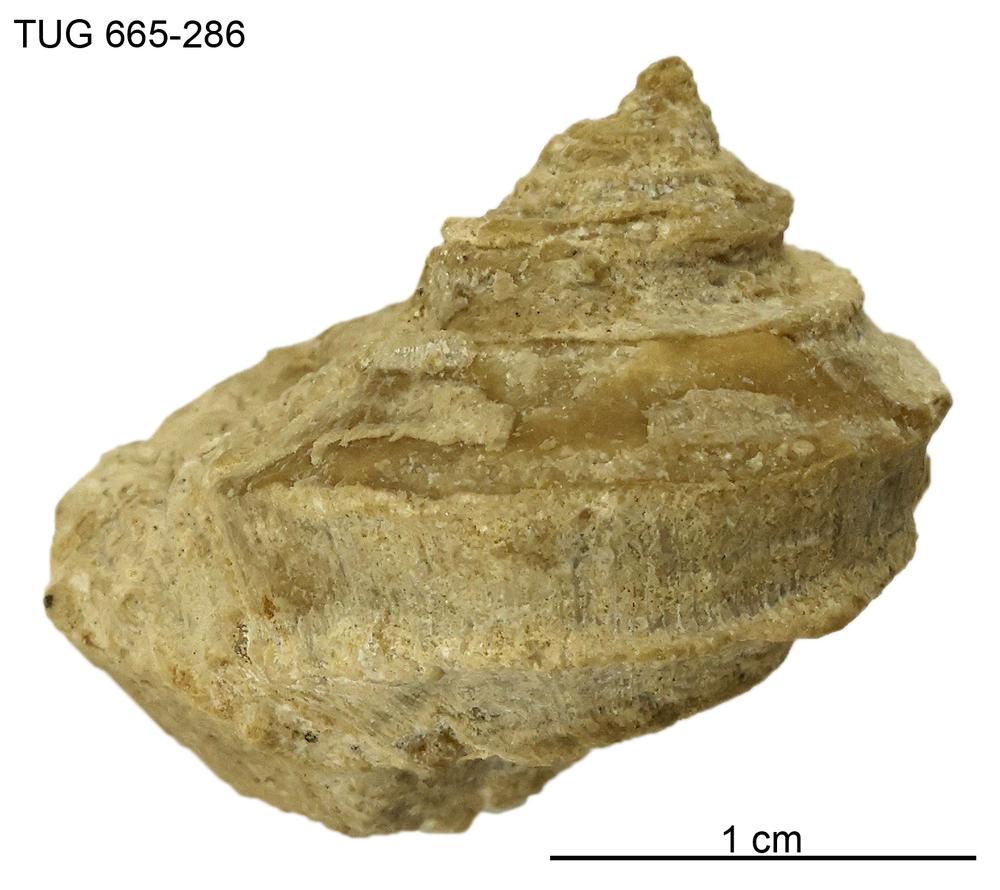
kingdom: Animalia
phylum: Mollusca
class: Gastropoda
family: Trochonematidae
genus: Trochonema
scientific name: Trochonema panderi
